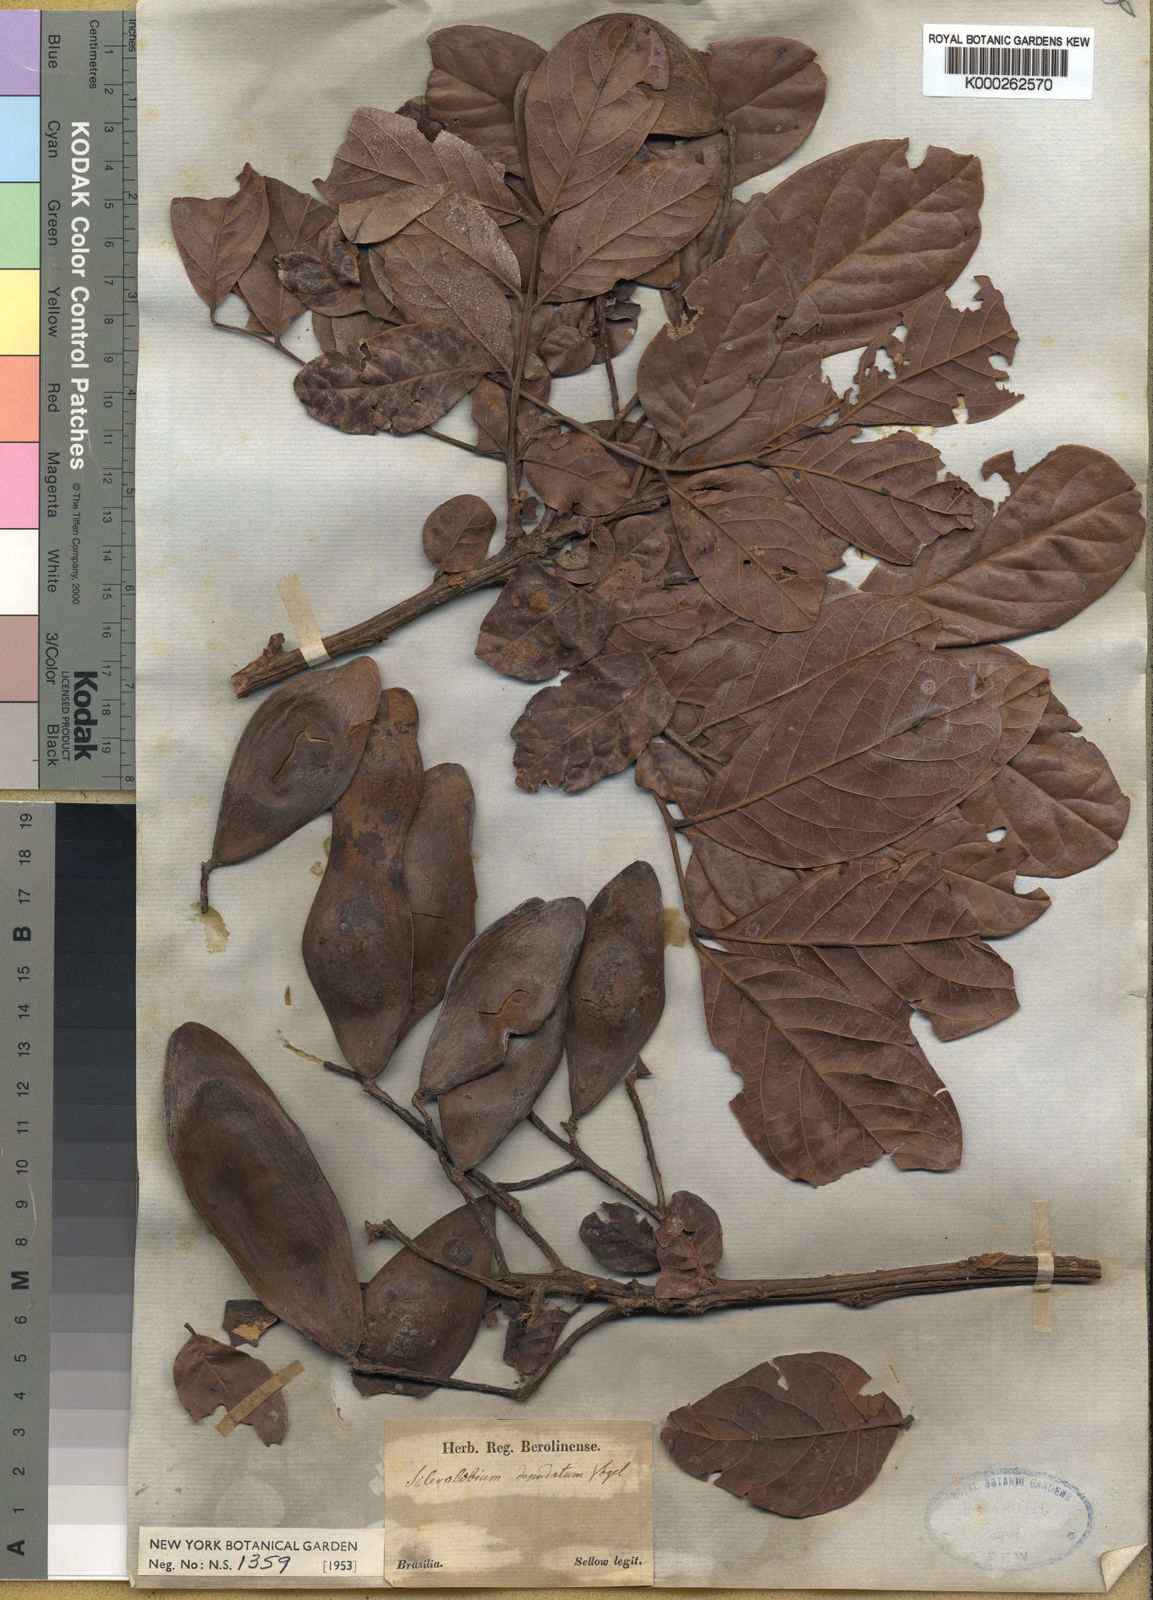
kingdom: Plantae
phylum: Tracheophyta
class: Magnoliopsida
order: Fabales
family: Fabaceae
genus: Tachigali
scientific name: Tachigali denudata
